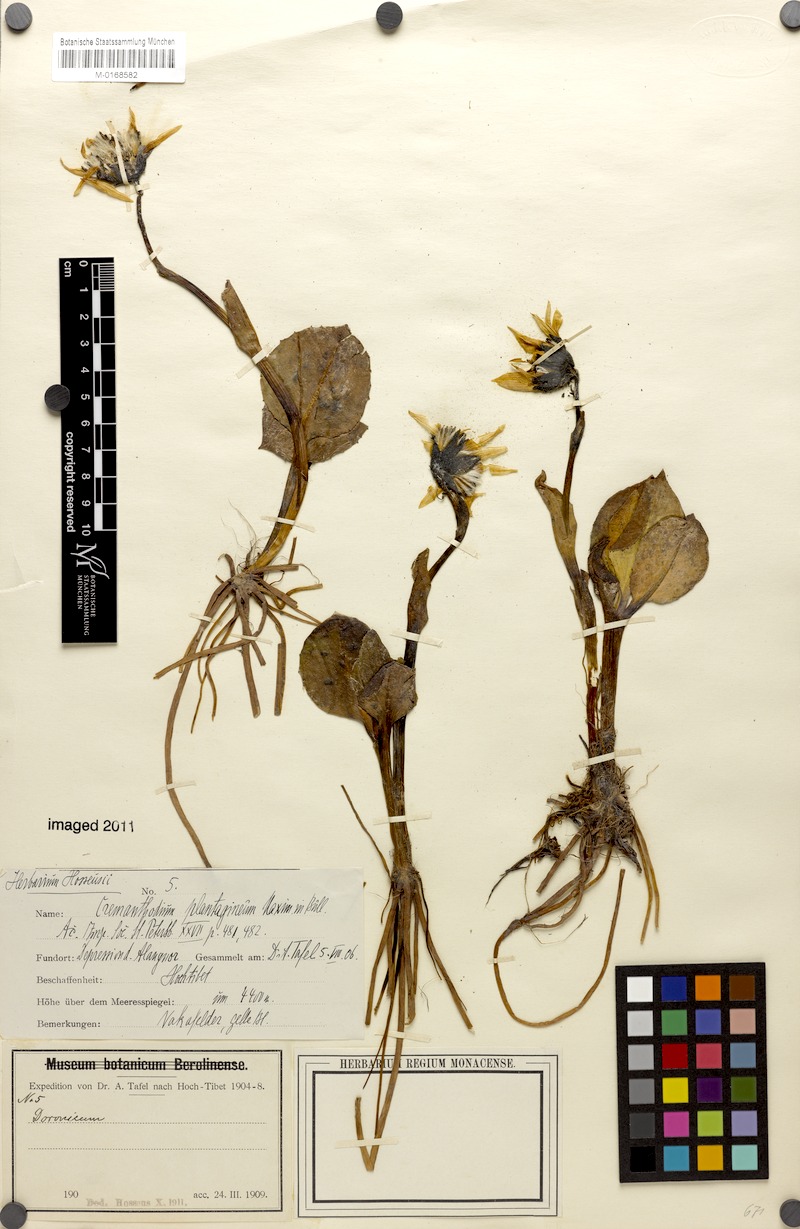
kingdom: Plantae
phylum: Tracheophyta
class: Magnoliopsida
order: Asterales
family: Asteraceae
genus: Cremanthodium
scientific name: Cremanthodium ellisii
